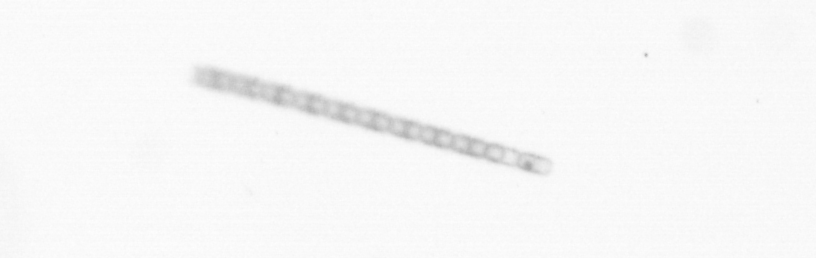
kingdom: Chromista
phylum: Ochrophyta
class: Bacillariophyceae
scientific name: Bacillariophyceae
